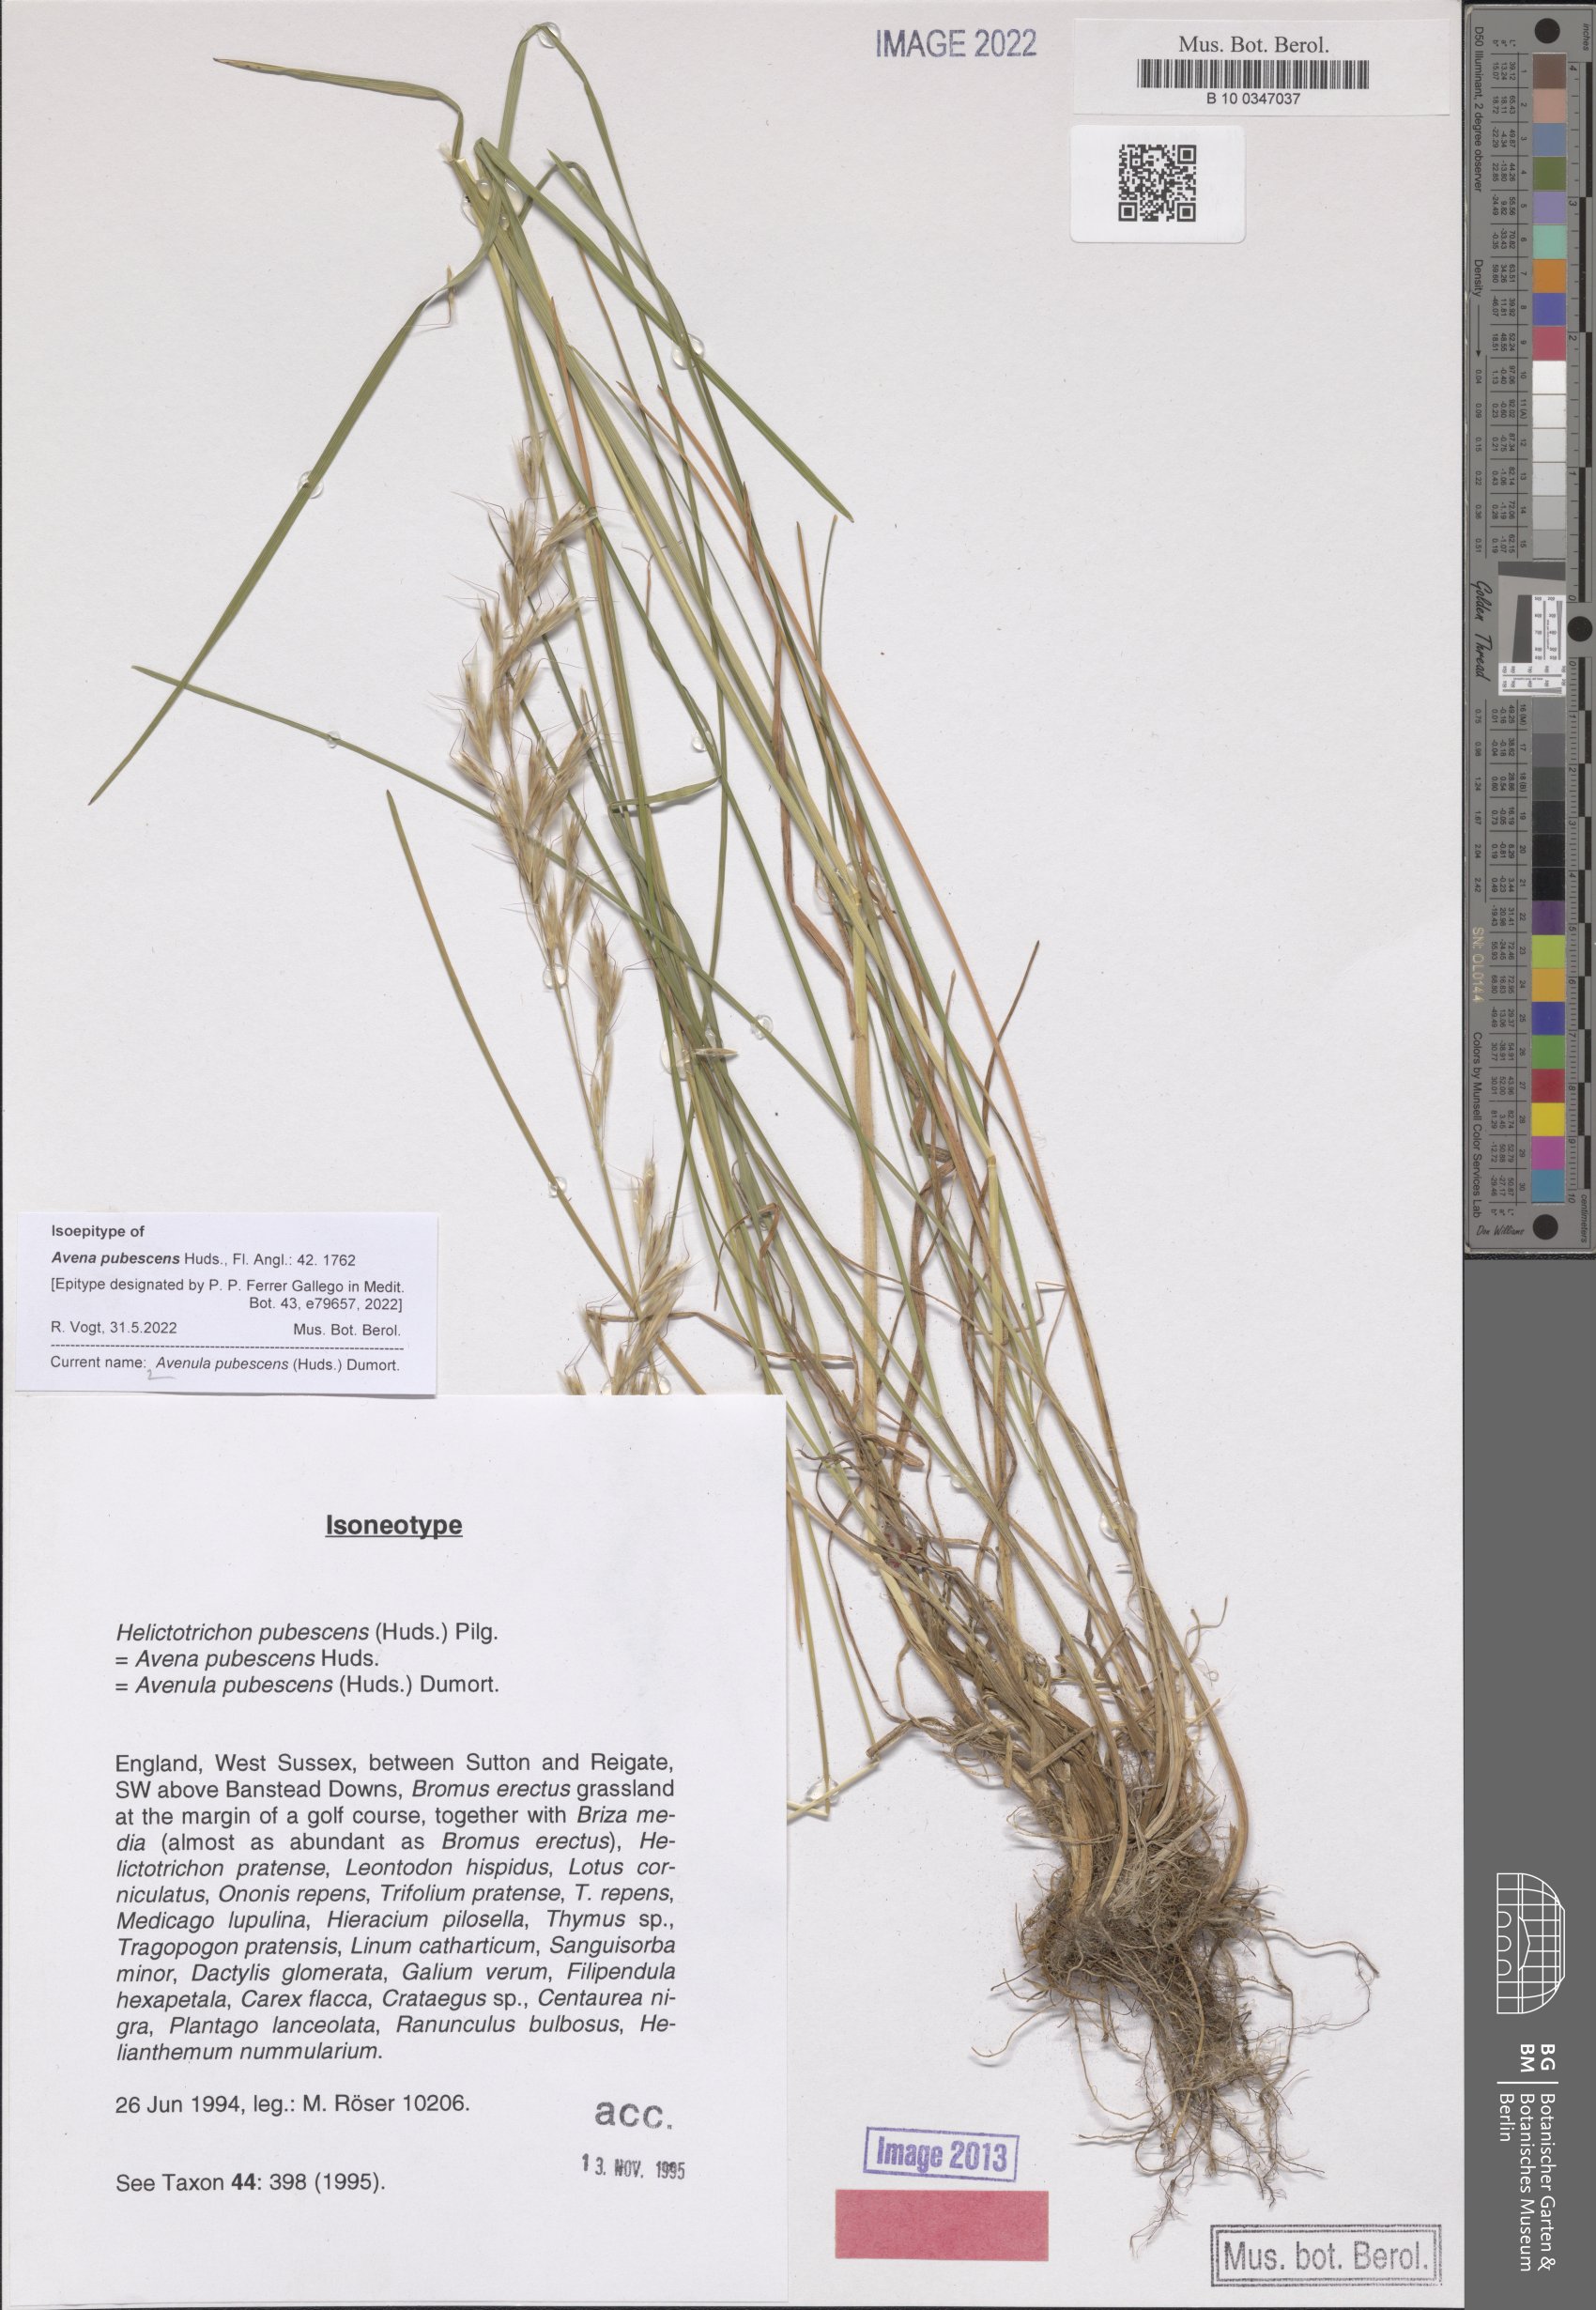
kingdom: Plantae
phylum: Tracheophyta
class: Liliopsida
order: Poales
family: Poaceae
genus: Avenula
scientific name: Avenula pubescens
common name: Downy alpine oatgrass
